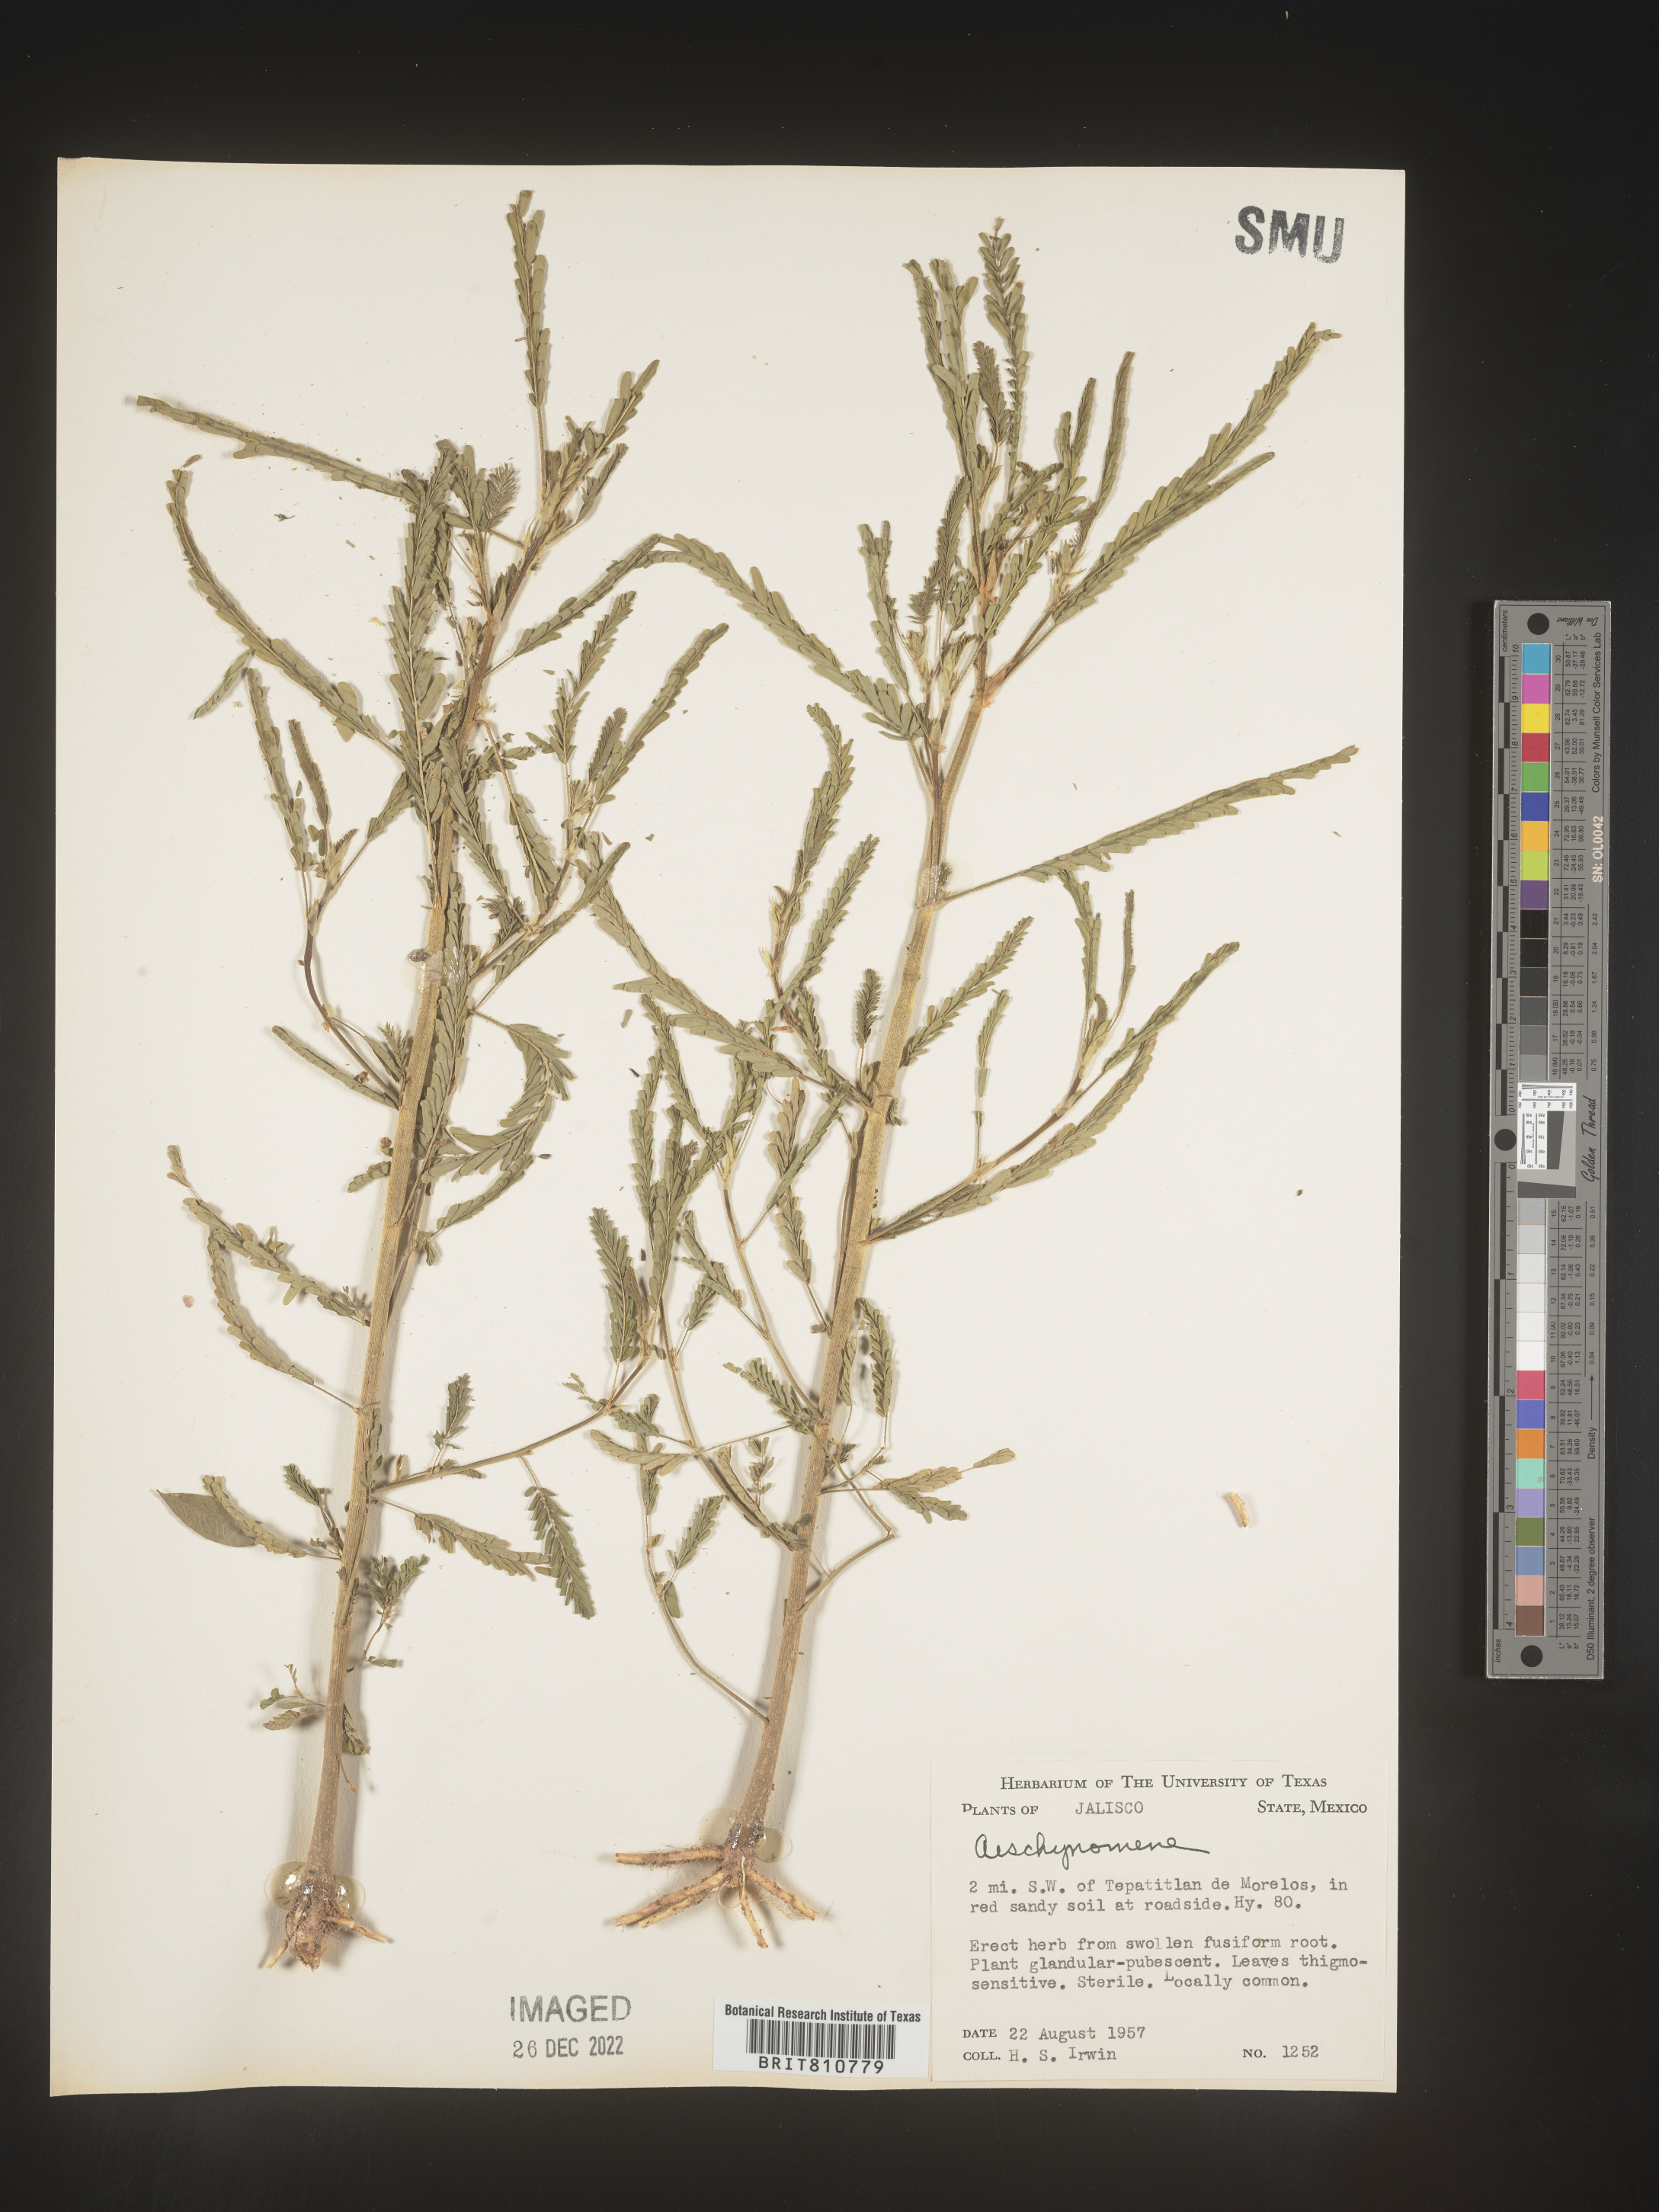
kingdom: Plantae
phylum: Tracheophyta
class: Magnoliopsida
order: Fabales
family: Fabaceae
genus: Aeschynomene
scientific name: Aeschynomene
